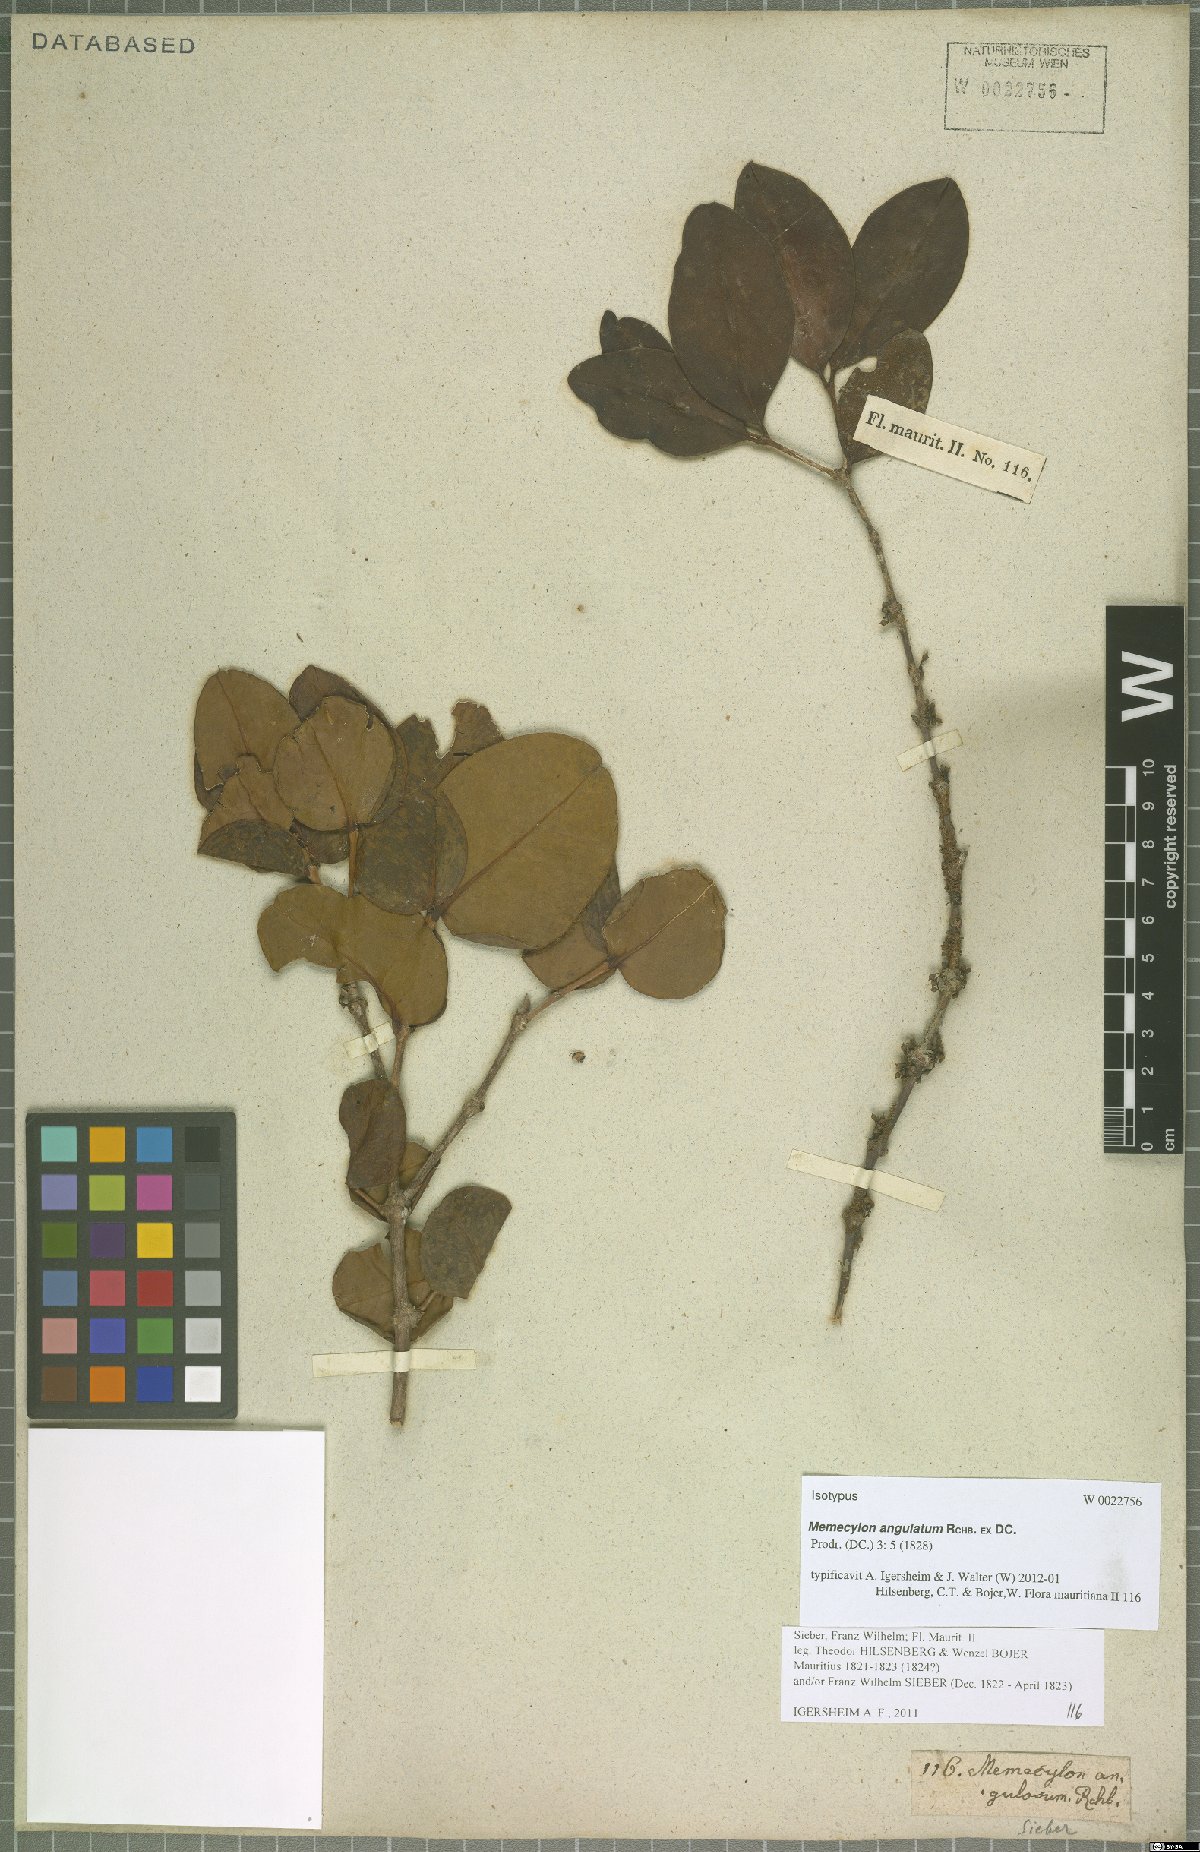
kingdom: Plantae
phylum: Tracheophyta
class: Magnoliopsida
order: Myrtales
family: Melastomataceae
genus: Memecylon
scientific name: Memecylon ovatifolium
